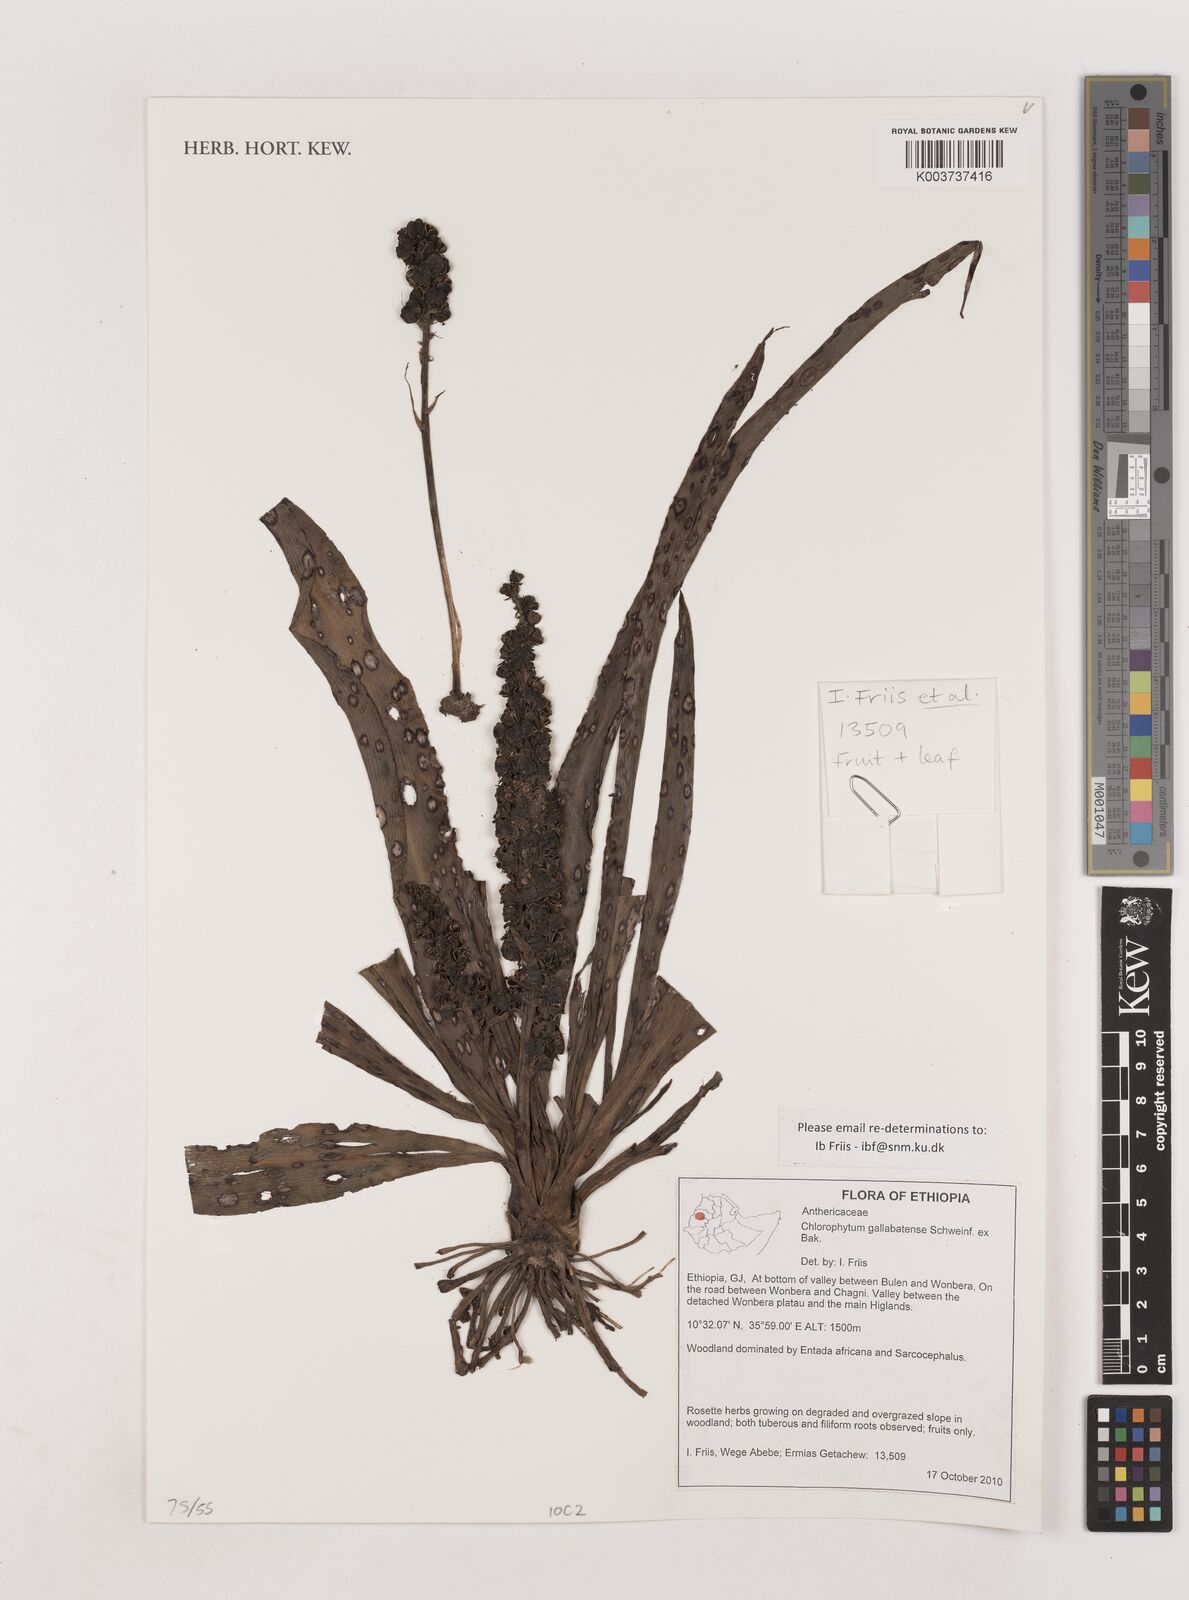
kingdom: Plantae
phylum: Tracheophyta
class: Liliopsida
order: Asparagales
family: Asparagaceae
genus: Chlorophytum
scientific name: Chlorophytum gallabatense
